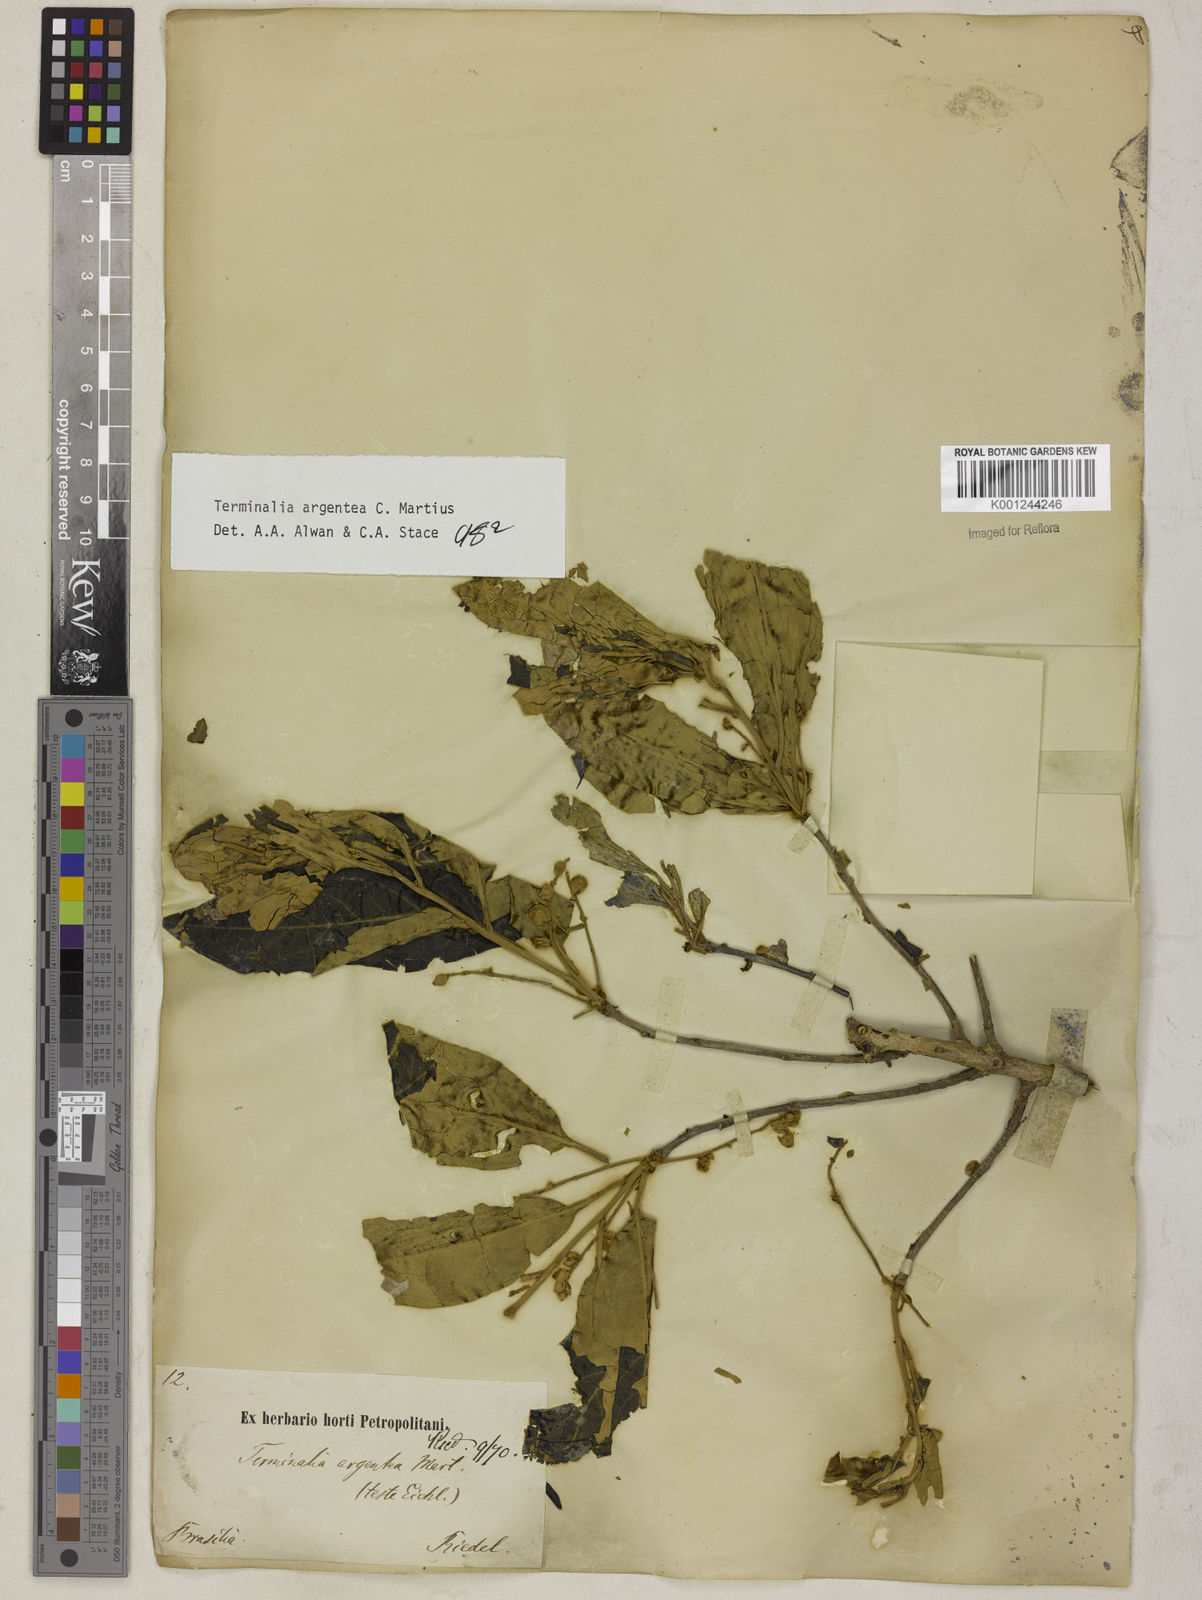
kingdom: Plantae
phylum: Tracheophyta
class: Magnoliopsida
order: Myrtales
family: Combretaceae
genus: Terminalia
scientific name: Terminalia argentea
